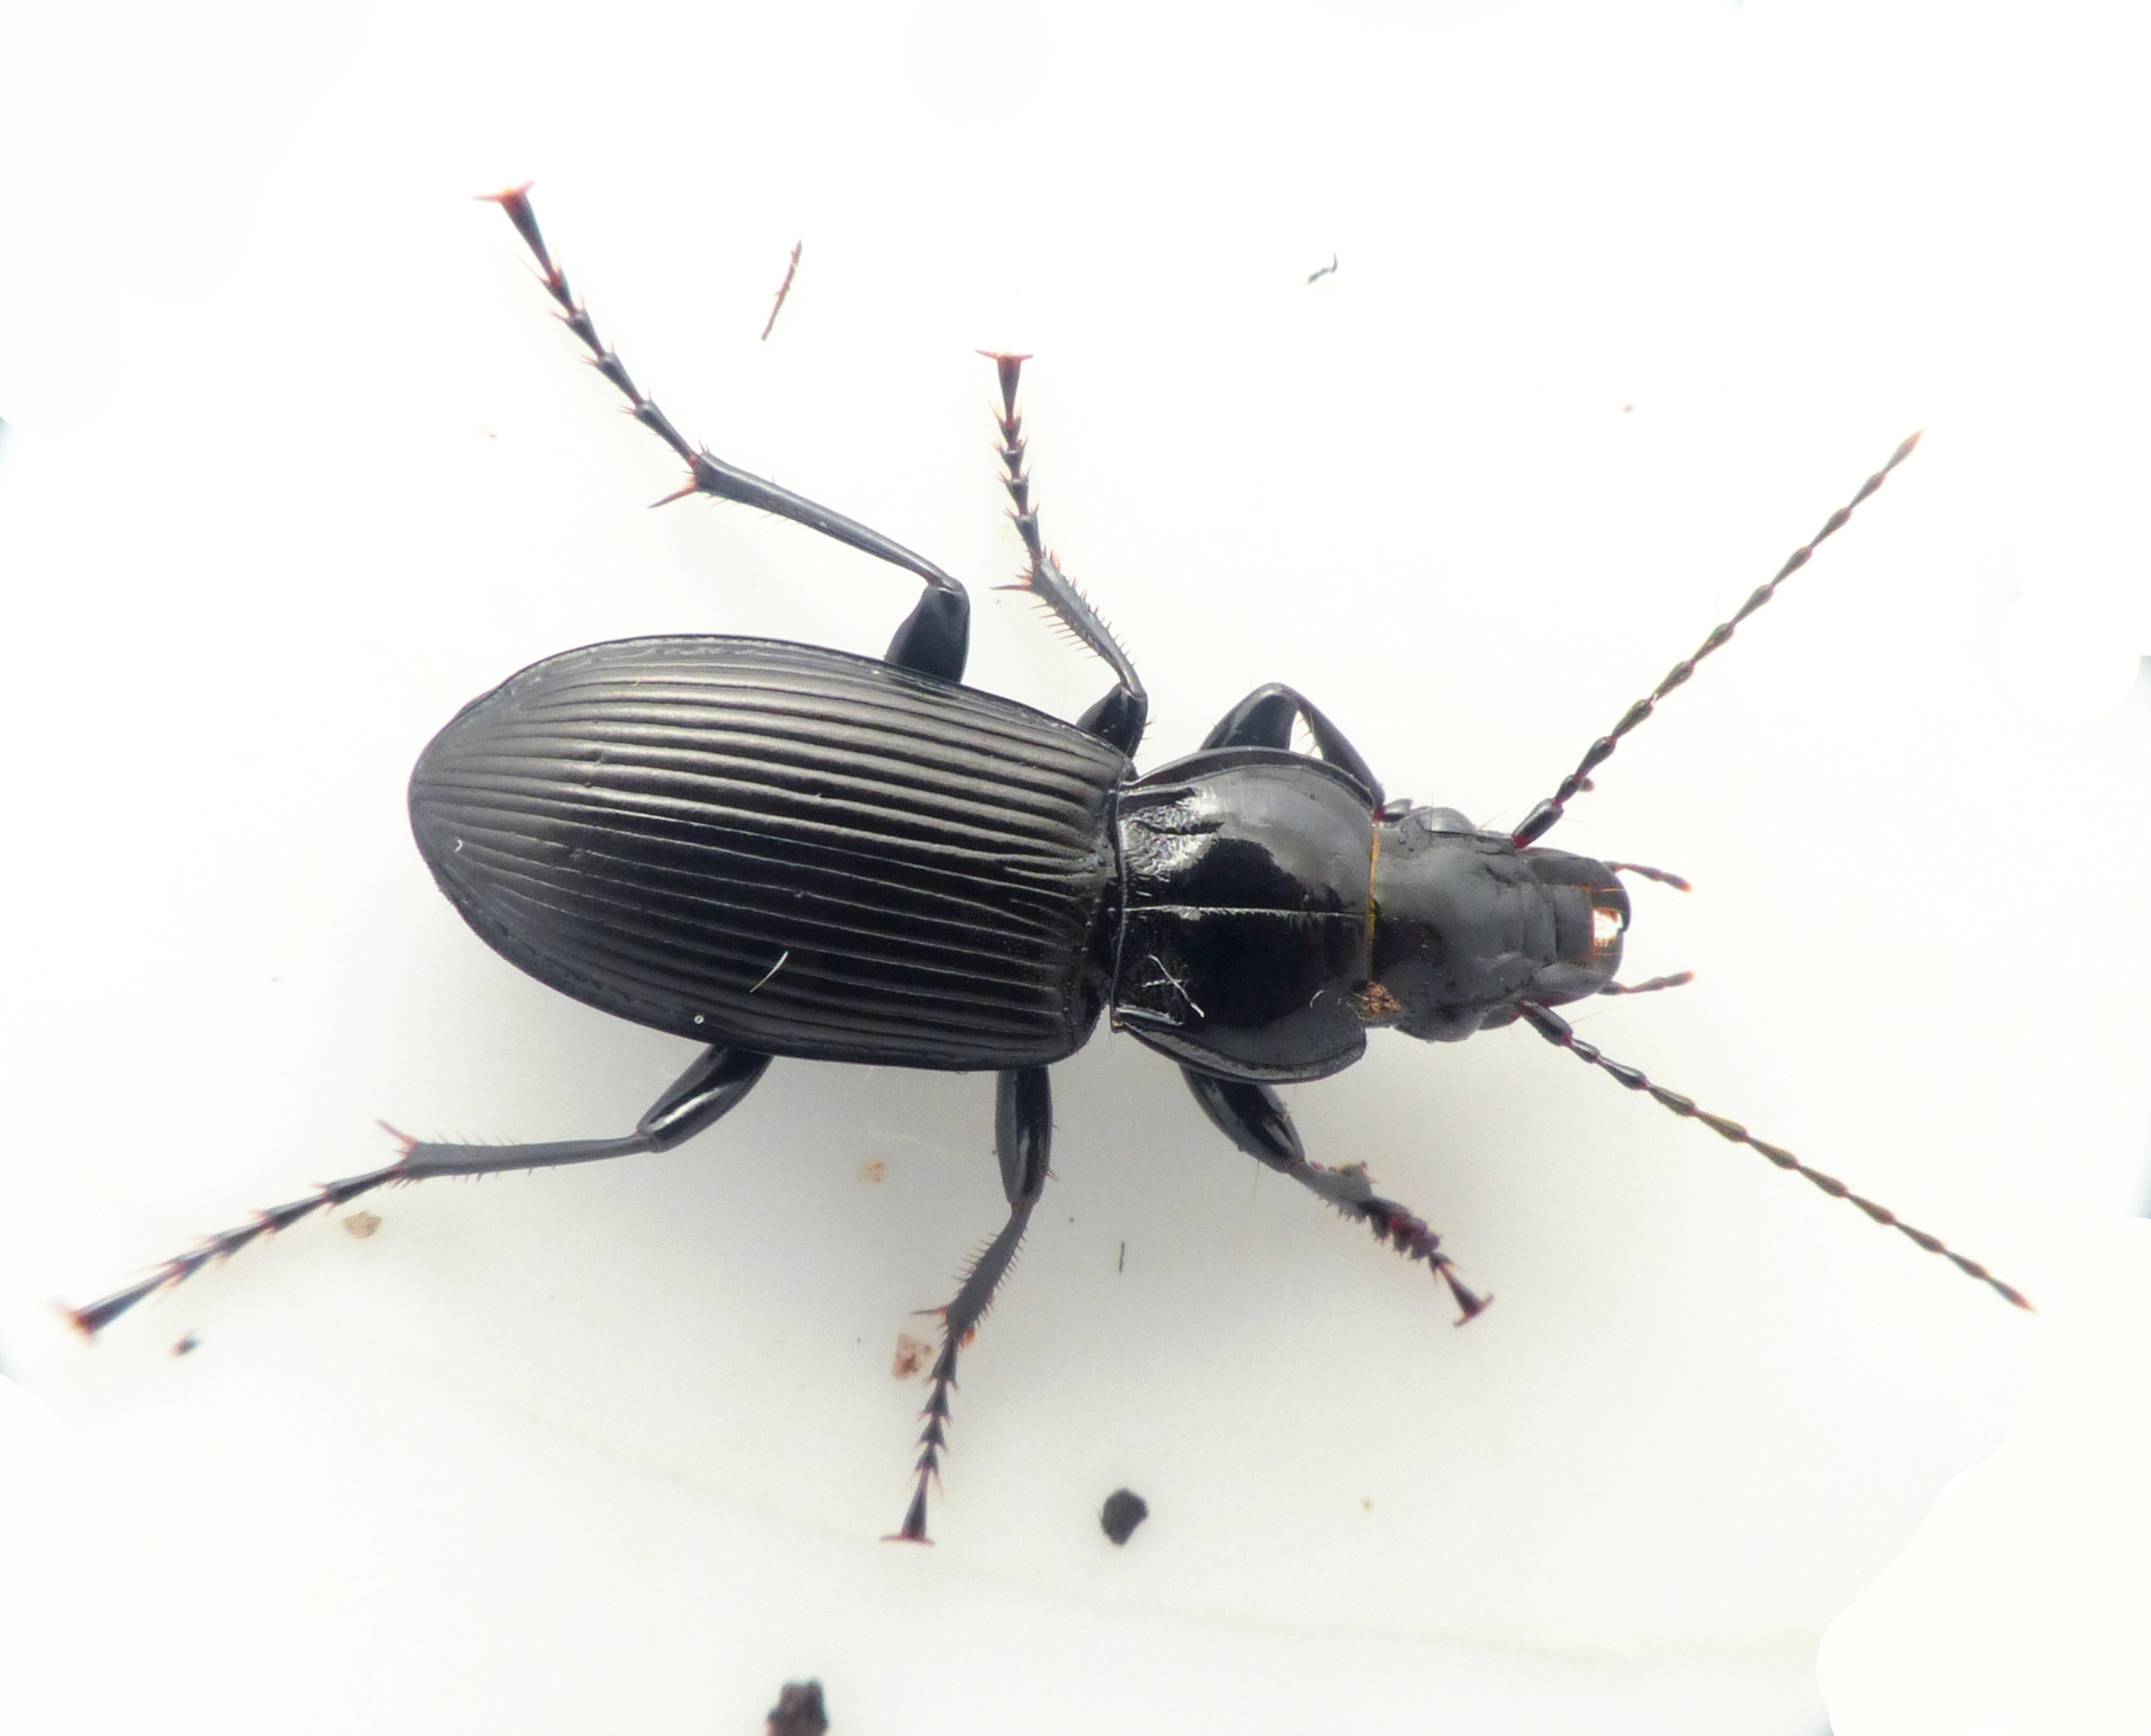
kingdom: Animalia
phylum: Arthropoda
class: Insecta
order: Coleoptera
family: Carabidae
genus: Pterostichus
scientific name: Pterostichus melanarius
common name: Markjordløber
